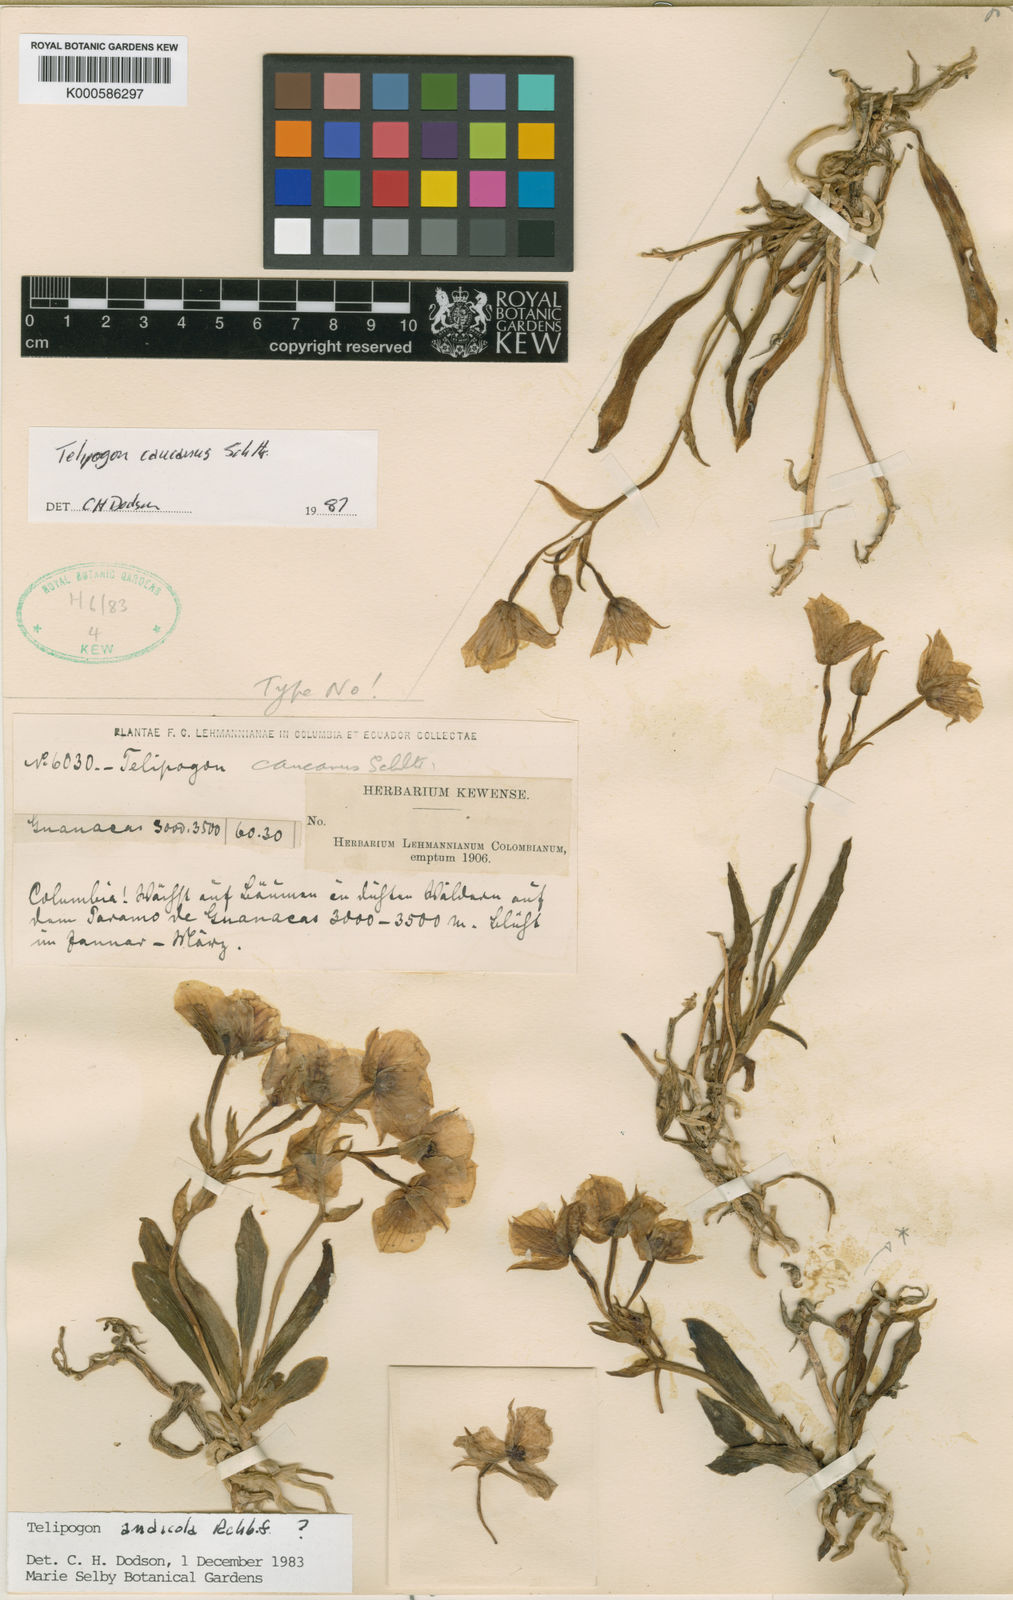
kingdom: Plantae
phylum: Tracheophyta
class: Liliopsida
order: Asparagales
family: Orchidaceae
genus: Telipogon
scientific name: Telipogon caucanus
